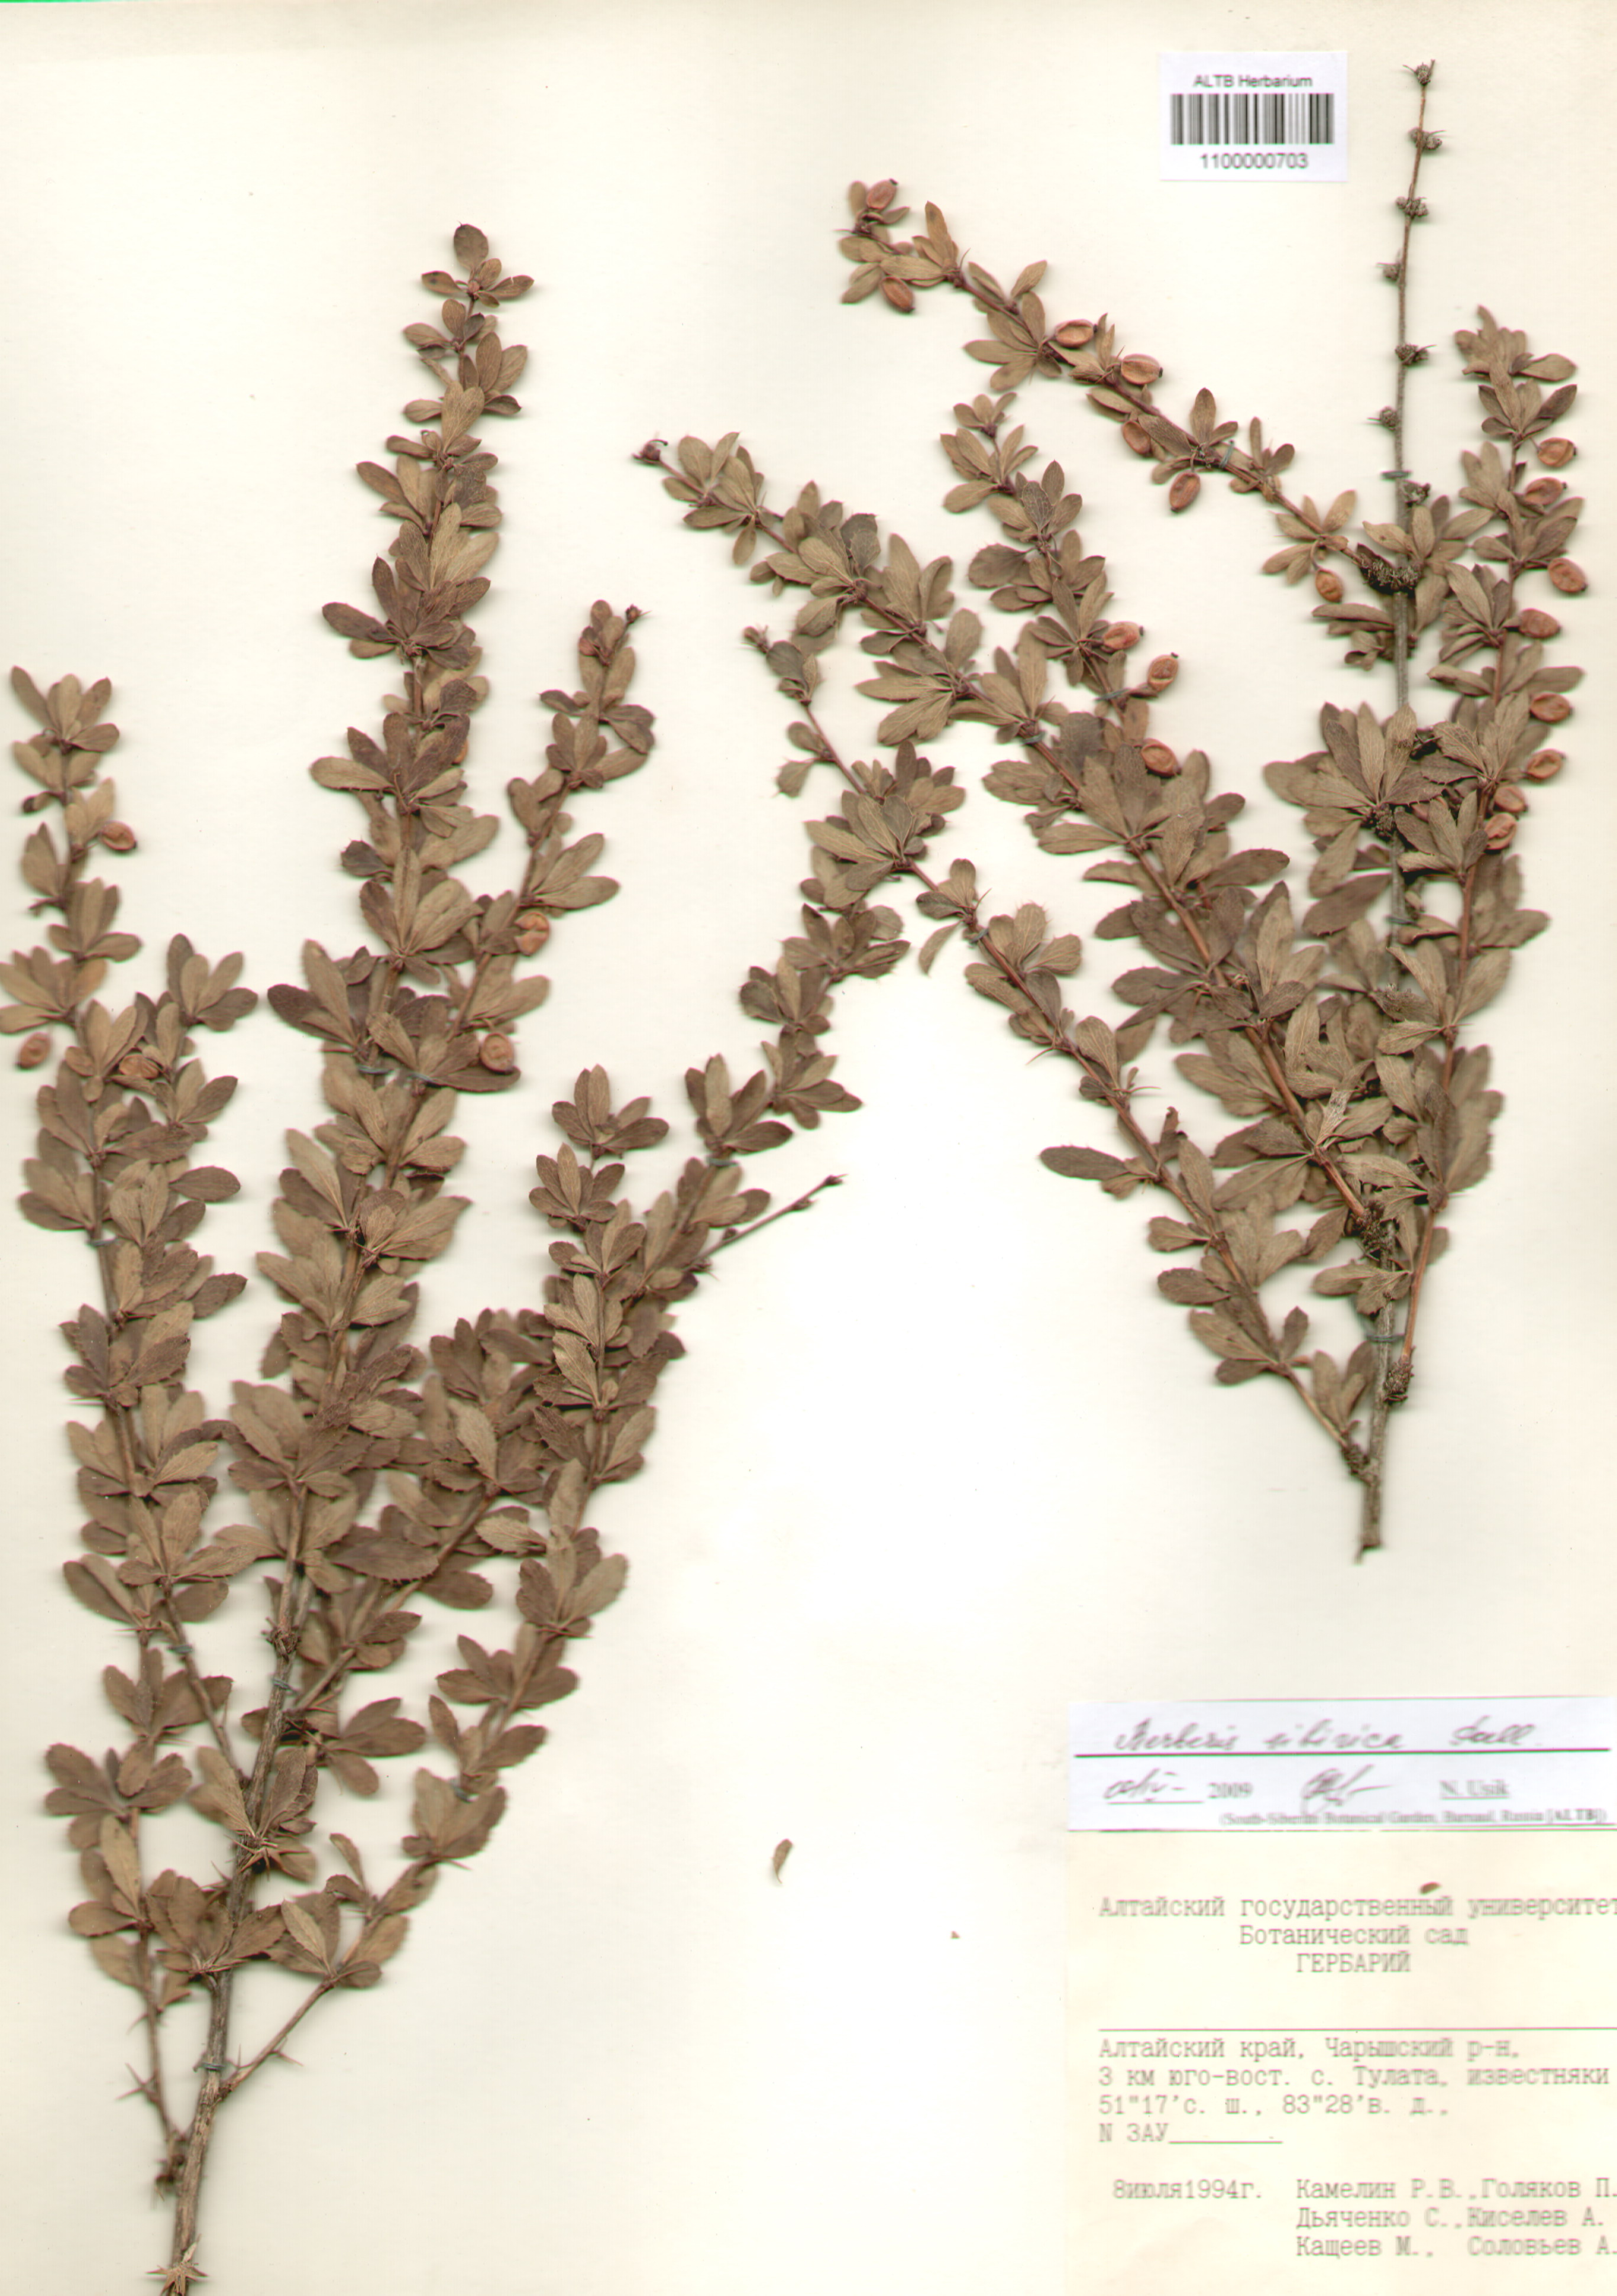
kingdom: Plantae
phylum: Tracheophyta
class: Magnoliopsida
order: Ranunculales
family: Berberidaceae
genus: Berberis
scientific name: Berberis sibirica
